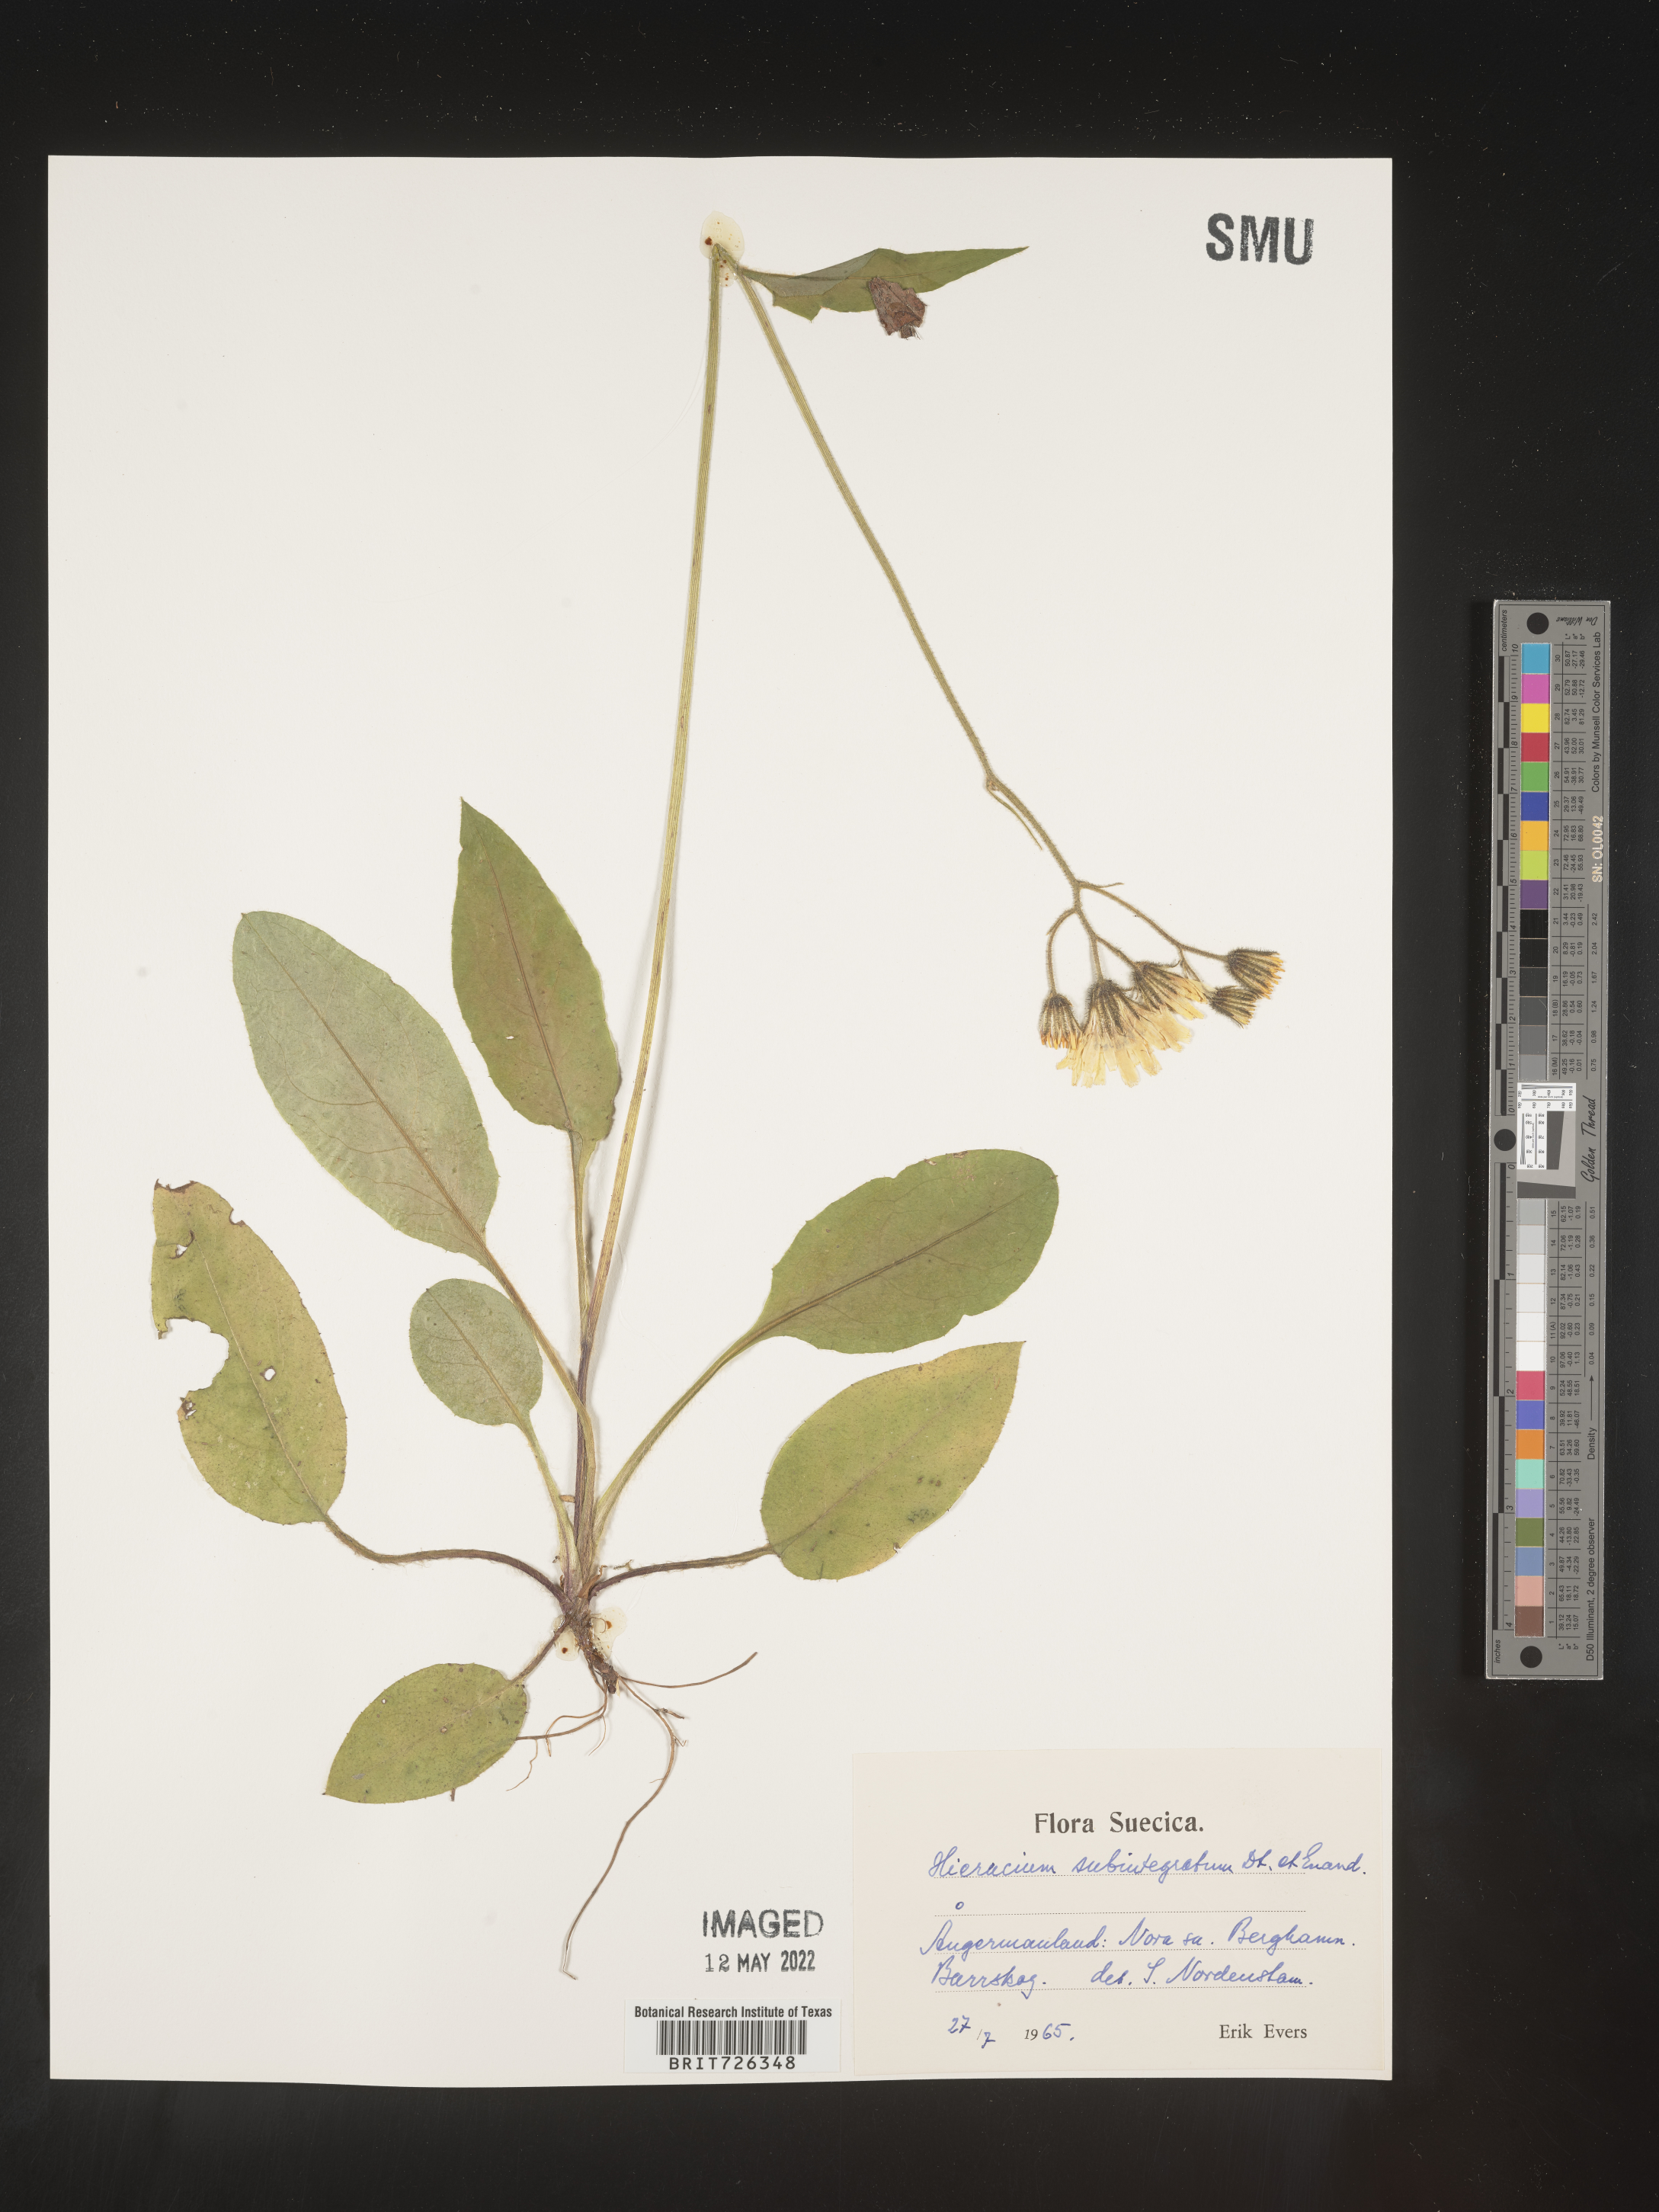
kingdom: Plantae
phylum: Tracheophyta
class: Magnoliopsida
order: Asterales
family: Asteraceae
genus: Hieracium
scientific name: Hieracium
